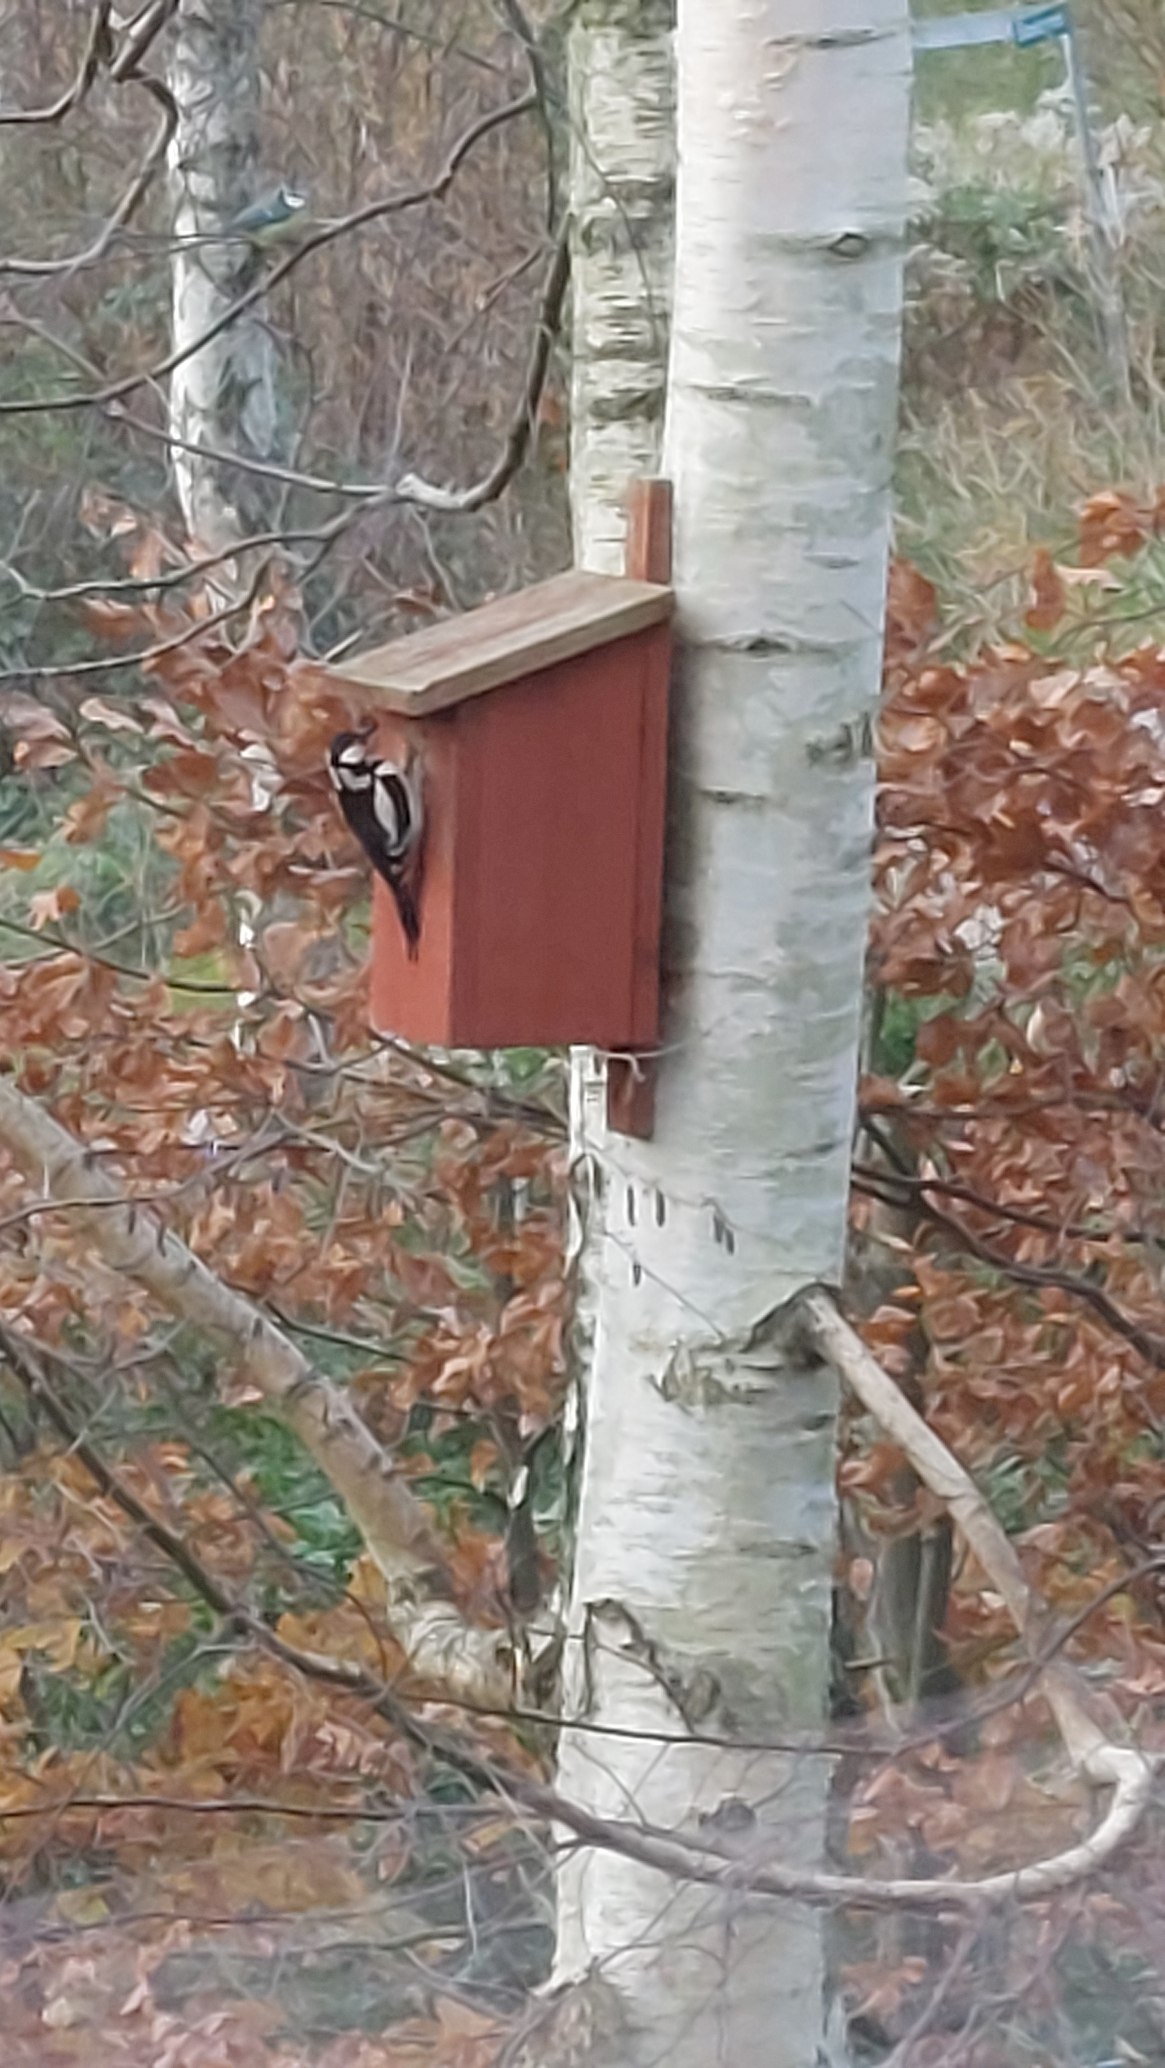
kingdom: Animalia
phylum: Chordata
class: Aves
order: Piciformes
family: Picidae
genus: Dendrocopos
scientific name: Dendrocopos major
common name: Stor flagspætte
